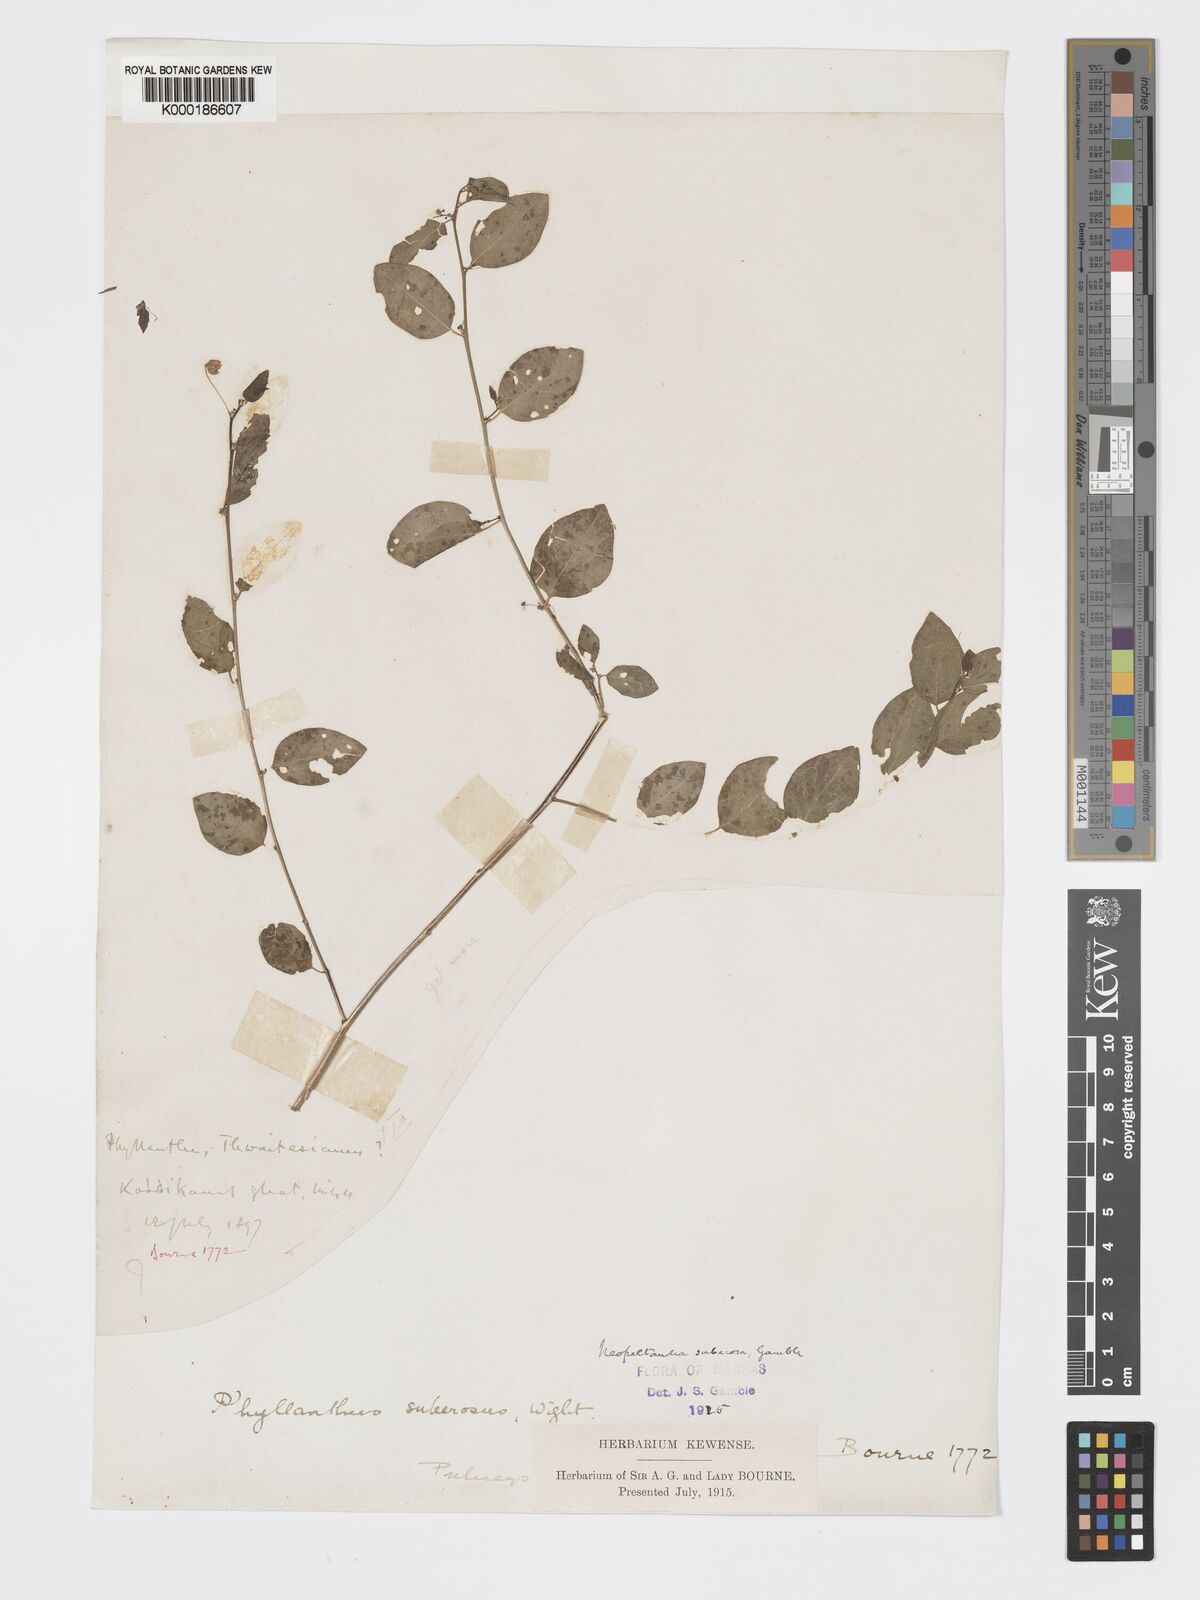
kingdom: Plantae
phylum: Tracheophyta
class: Magnoliopsida
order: Malpighiales
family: Phyllanthaceae
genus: Meineckia
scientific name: Meineckia parvifolia
